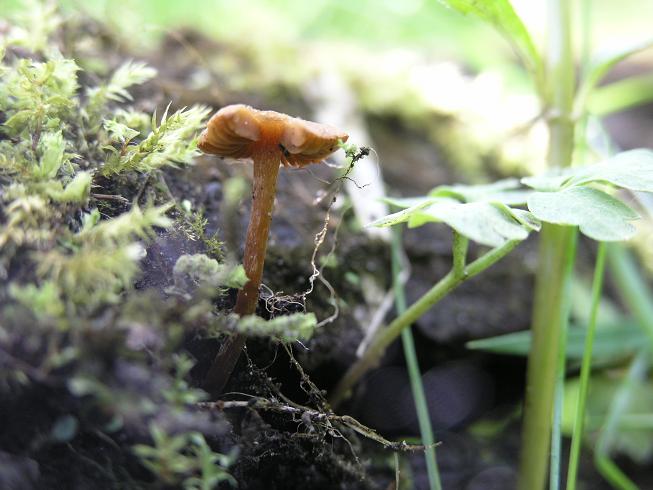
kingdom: Fungi
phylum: Basidiomycota
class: Agaricomycetes
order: Agaricales
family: Hymenogastraceae
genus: Naucoria
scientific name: Naucoria scolecina
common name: mørk elle-knaphat
